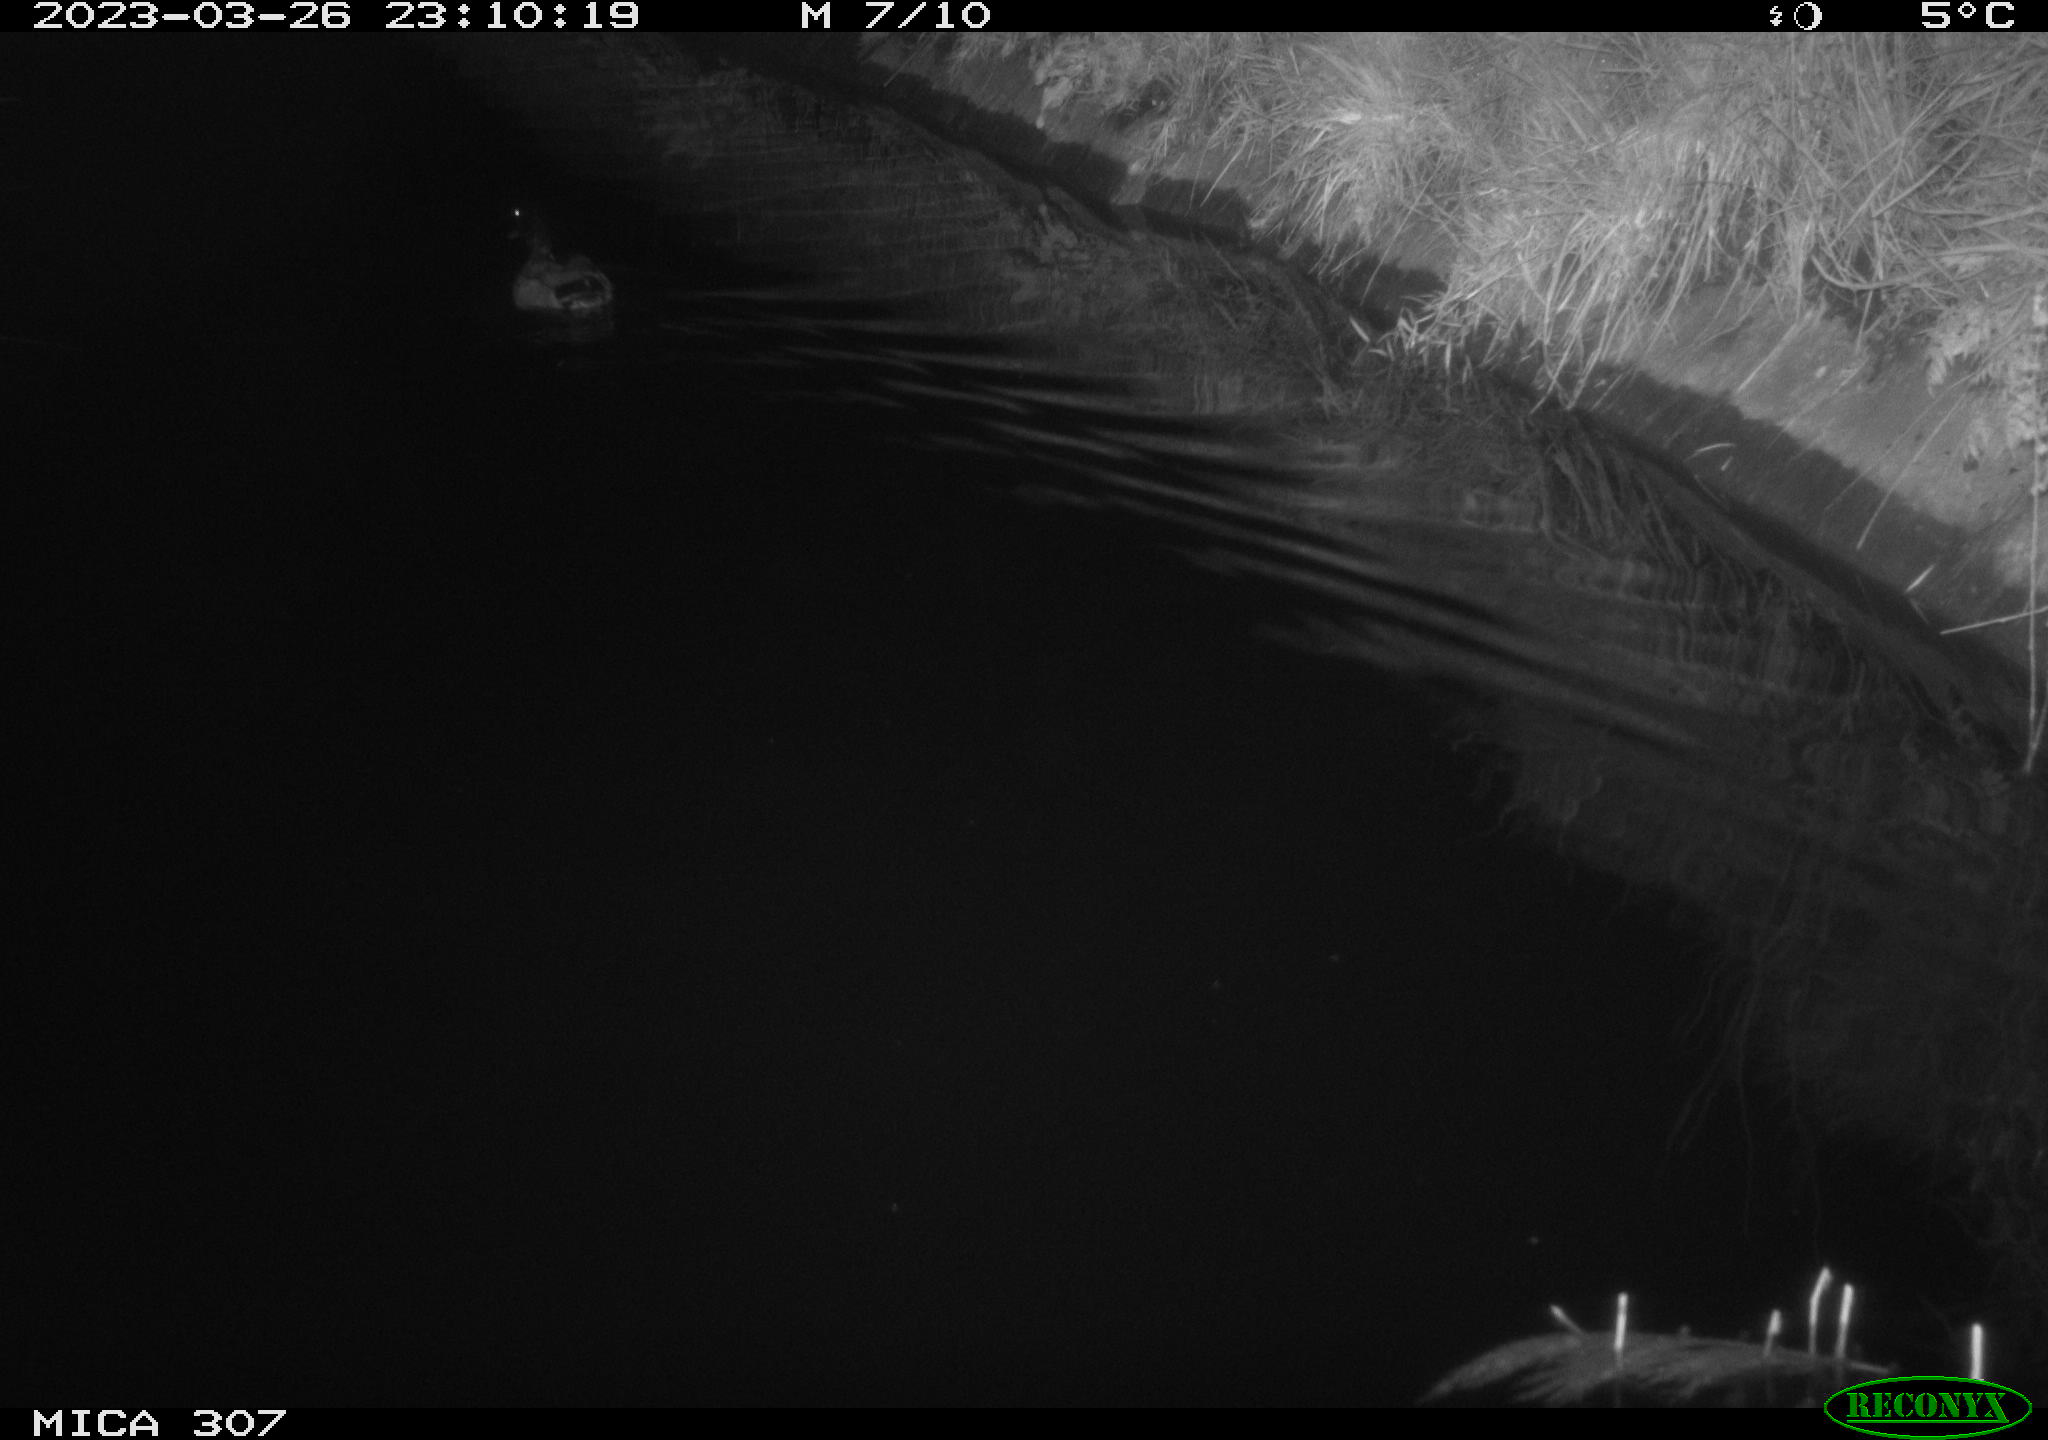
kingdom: Animalia
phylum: Chordata
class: Aves
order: Anseriformes
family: Anatidae
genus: Anas
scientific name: Anas
